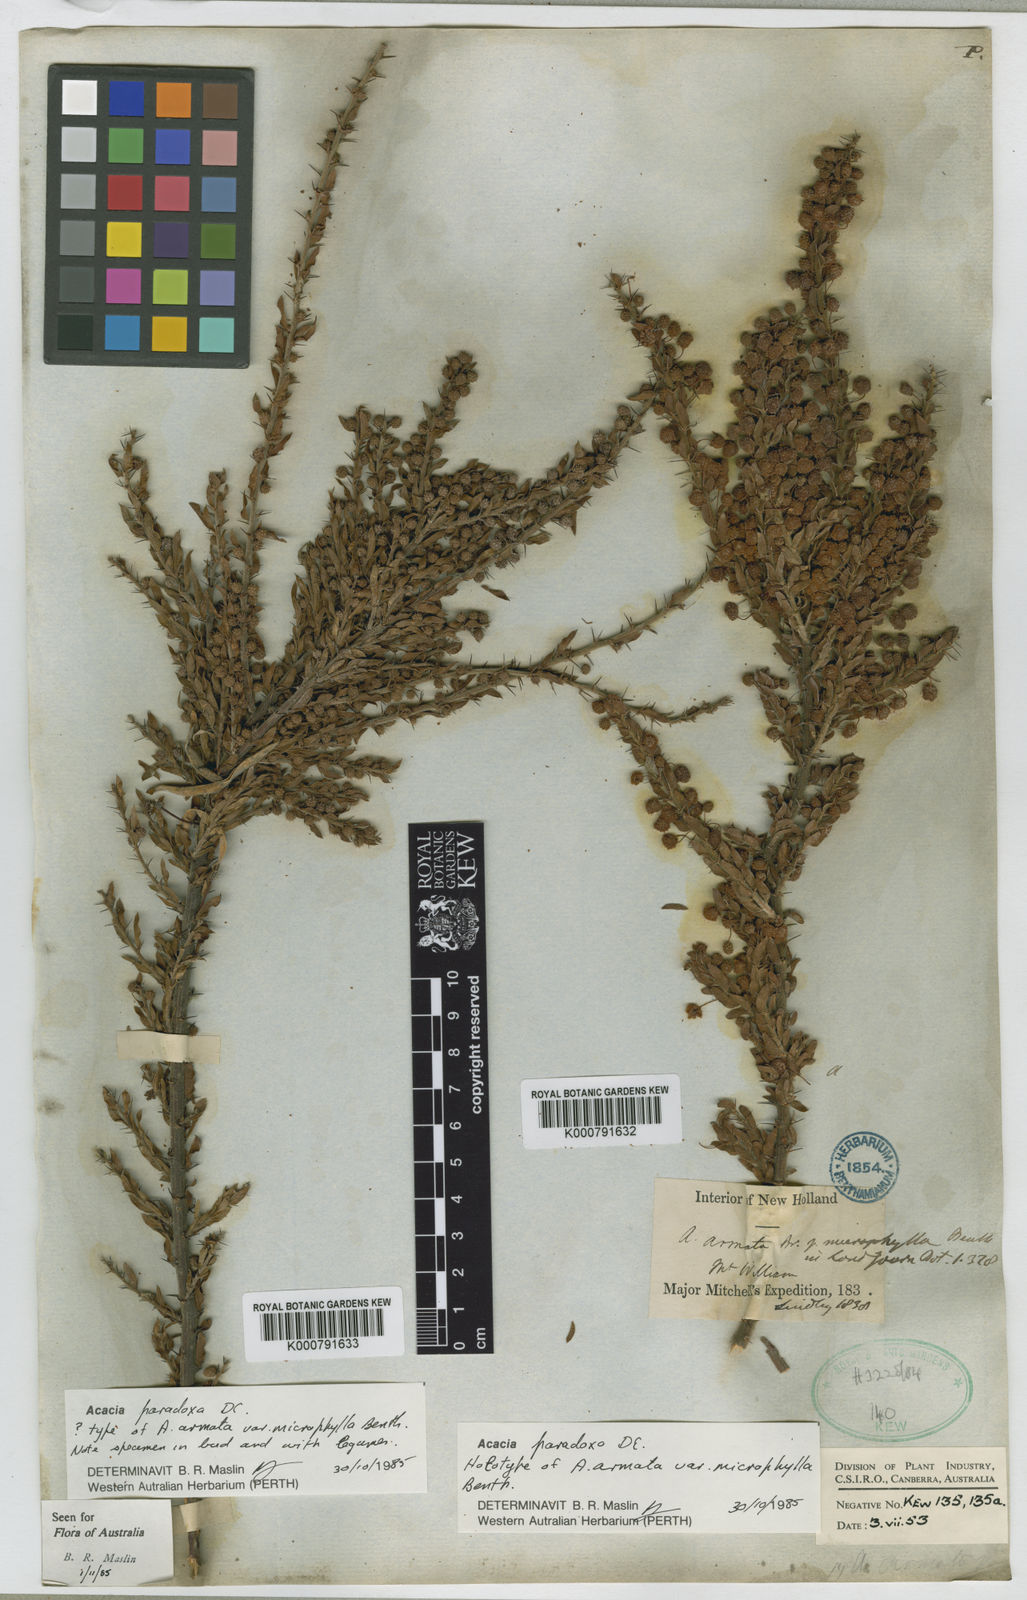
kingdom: Plantae
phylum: Tracheophyta
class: Magnoliopsida
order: Fabales
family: Fabaceae
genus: Acacia
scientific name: Acacia paradoxa
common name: Paradox acacia
